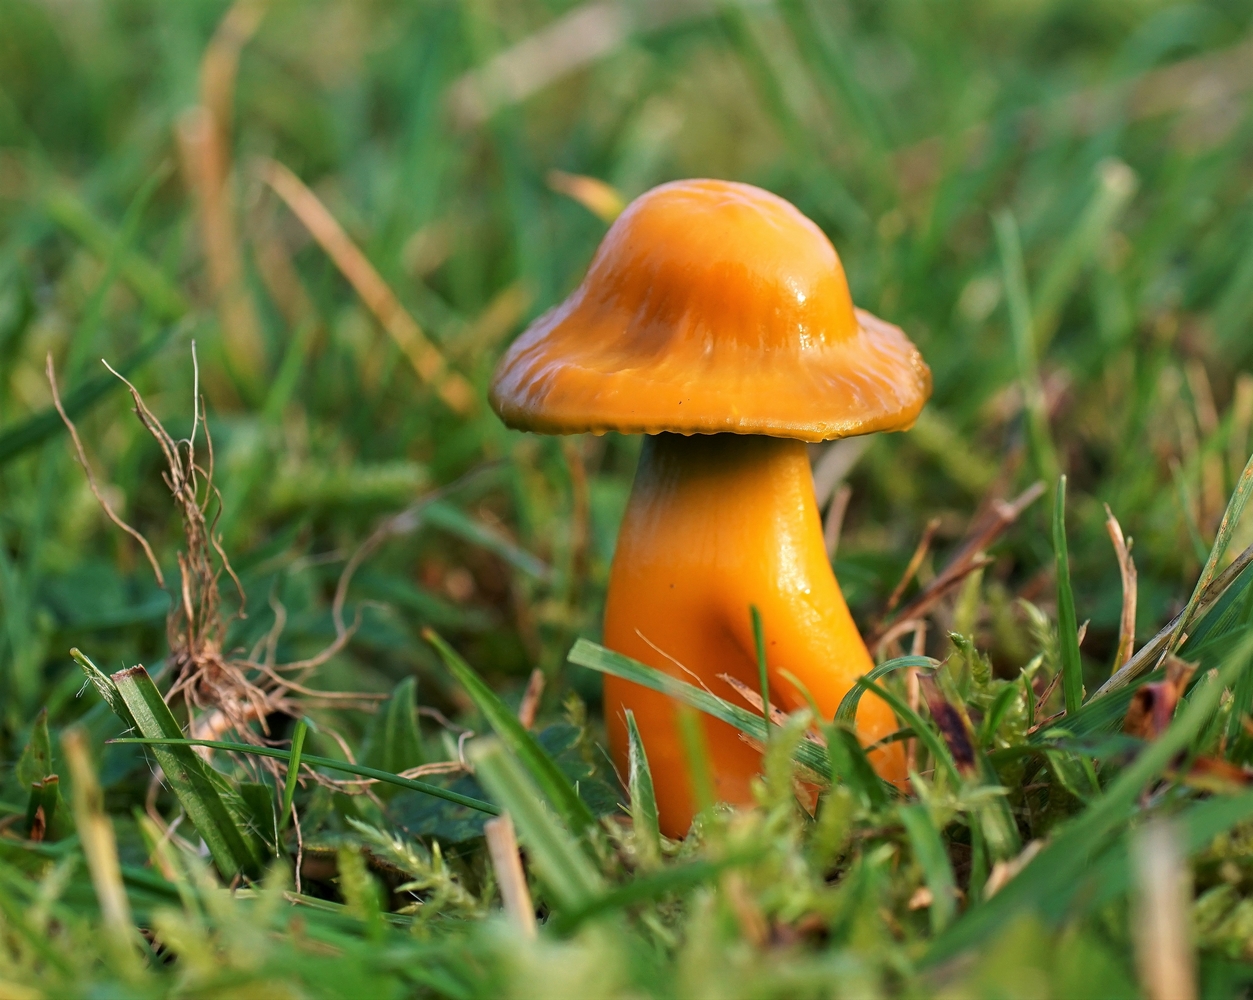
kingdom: Fungi
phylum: Basidiomycota
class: Agaricomycetes
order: Agaricales
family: Hygrophoraceae
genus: Gliophorus
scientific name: Gliophorus psittacinus
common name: papegøje-vokshat
